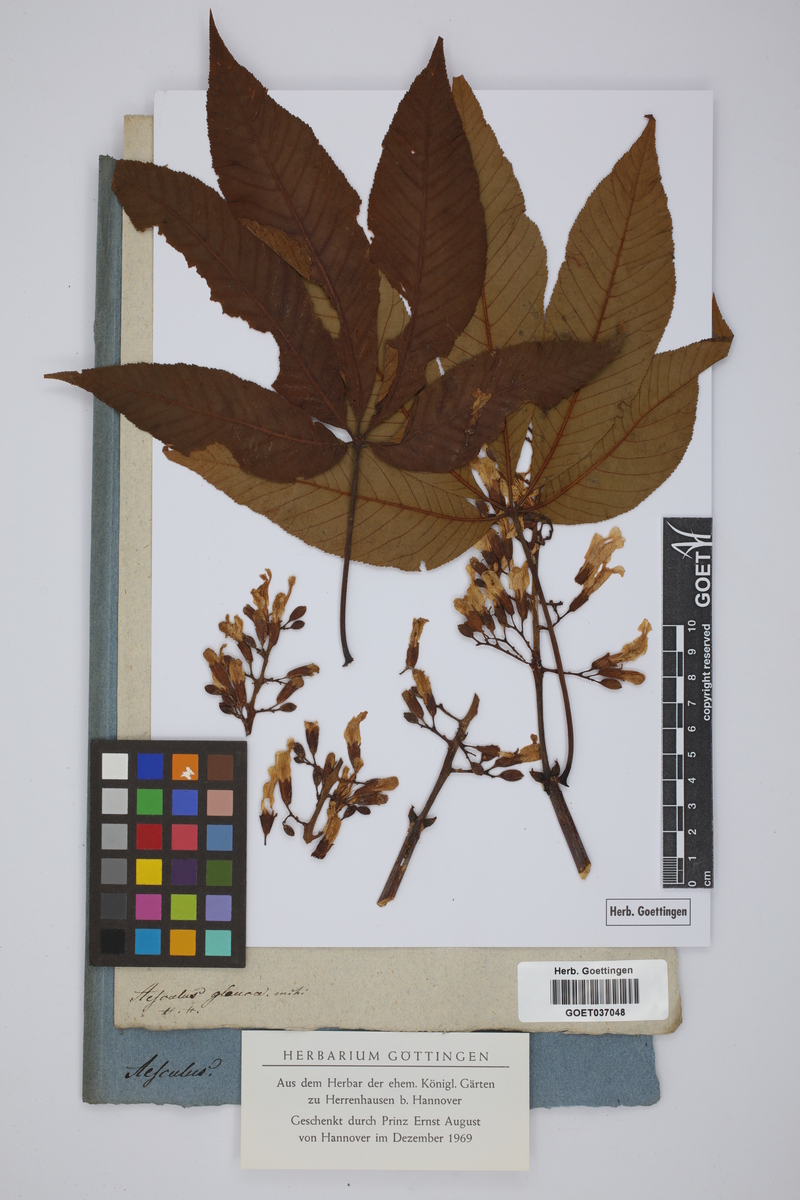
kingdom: Plantae
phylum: Tracheophyta
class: Magnoliopsida
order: Sapindales
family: Sapindaceae
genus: Aesculus
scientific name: Aesculus glabra
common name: Ohio buckeye
